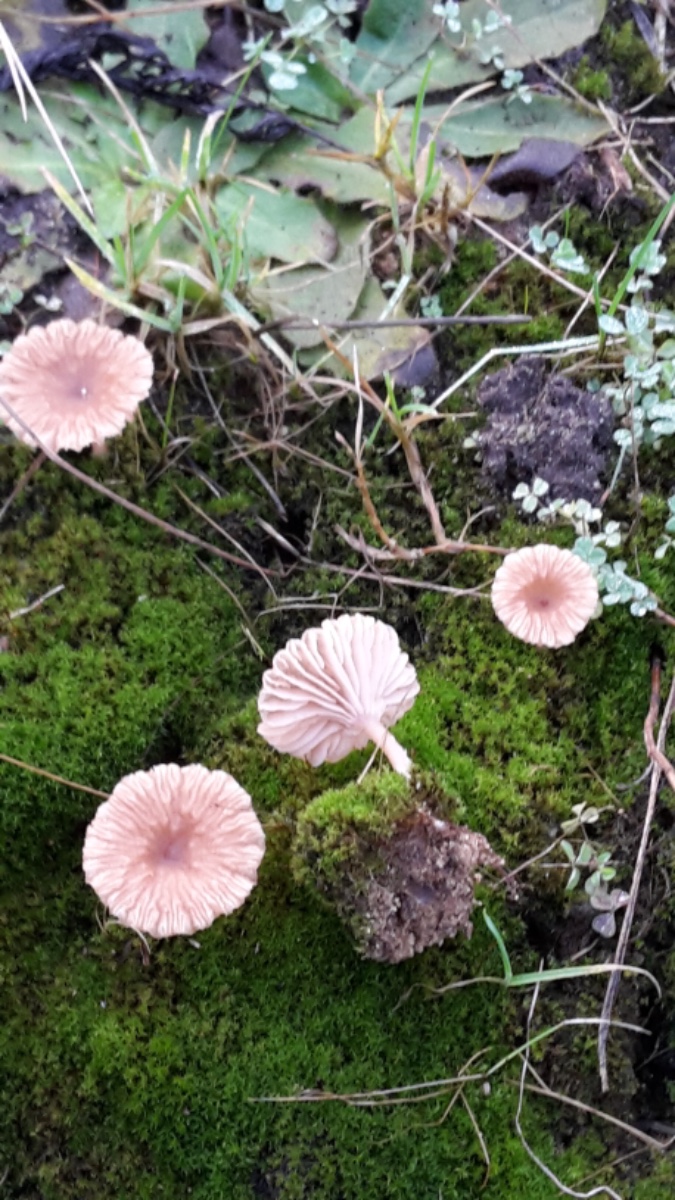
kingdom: Fungi
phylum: Basidiomycota
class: Agaricomycetes
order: Agaricales
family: Tricholomataceae
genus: Omphalina
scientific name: Omphalina pyxidata
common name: rødbrun navlehat
